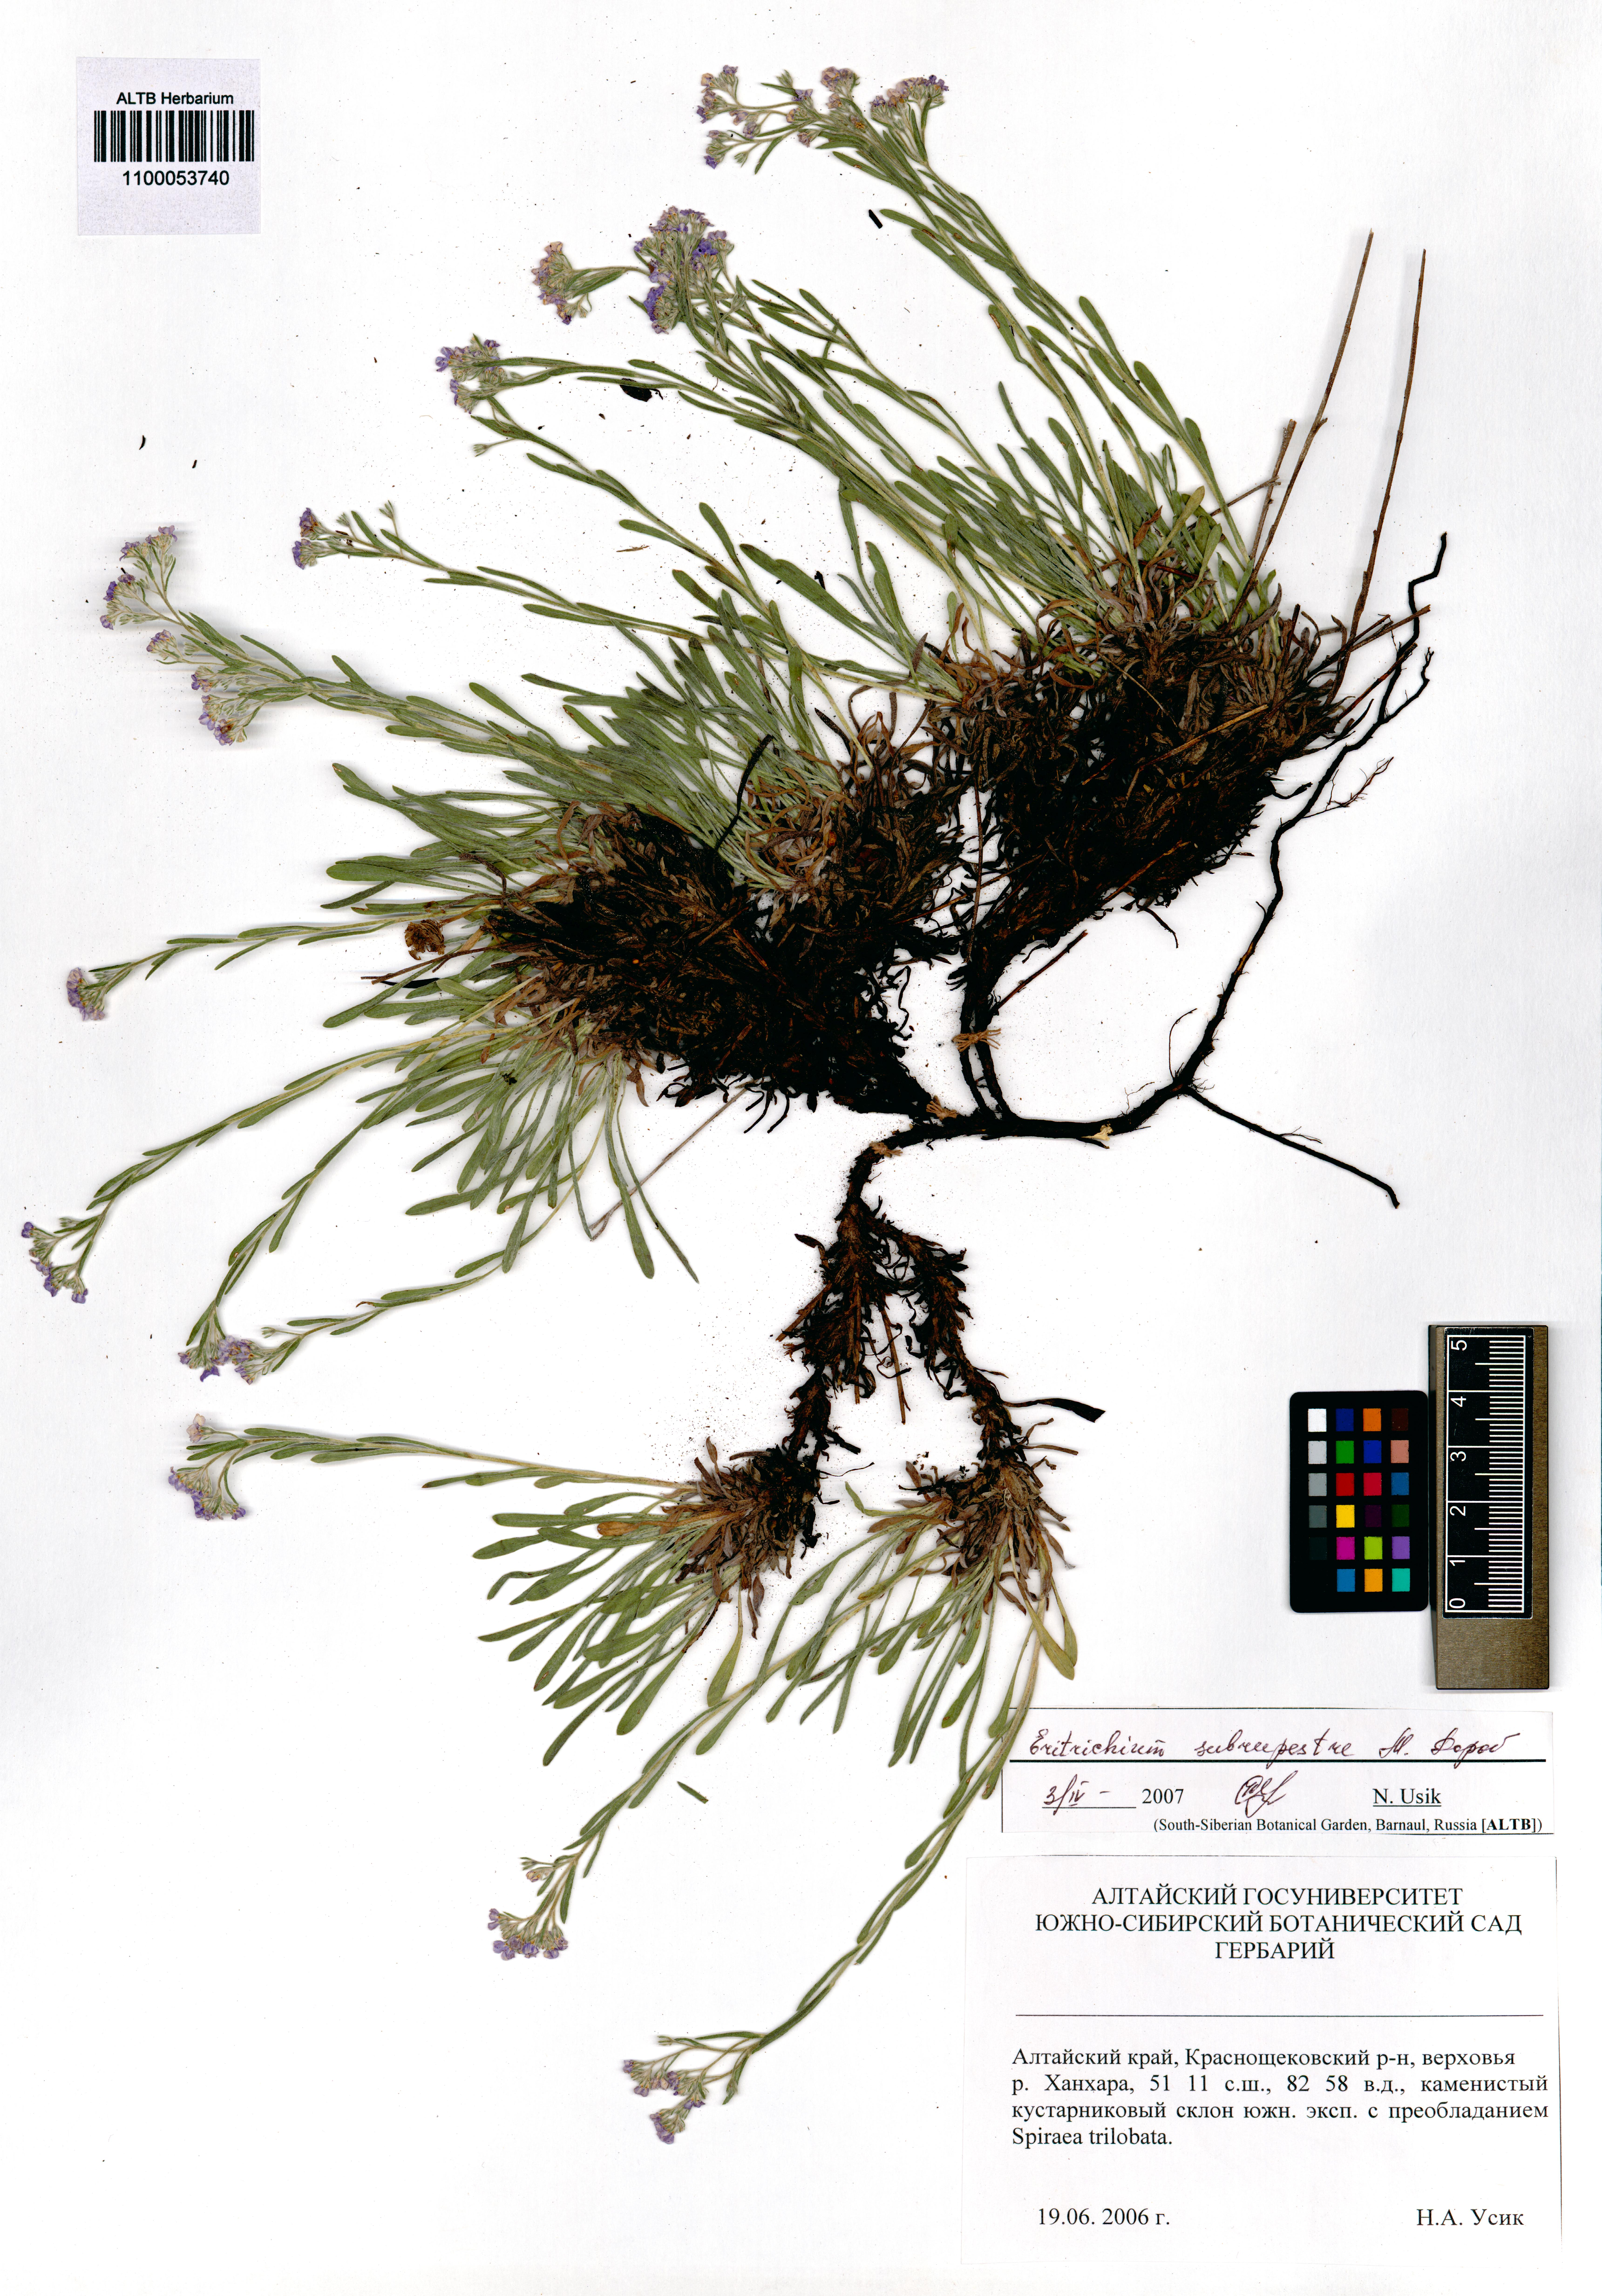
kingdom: Plantae
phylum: Tracheophyta
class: Magnoliopsida
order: Boraginales
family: Boraginaceae
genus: Eritrichium
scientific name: Eritrichium pauciflorum
